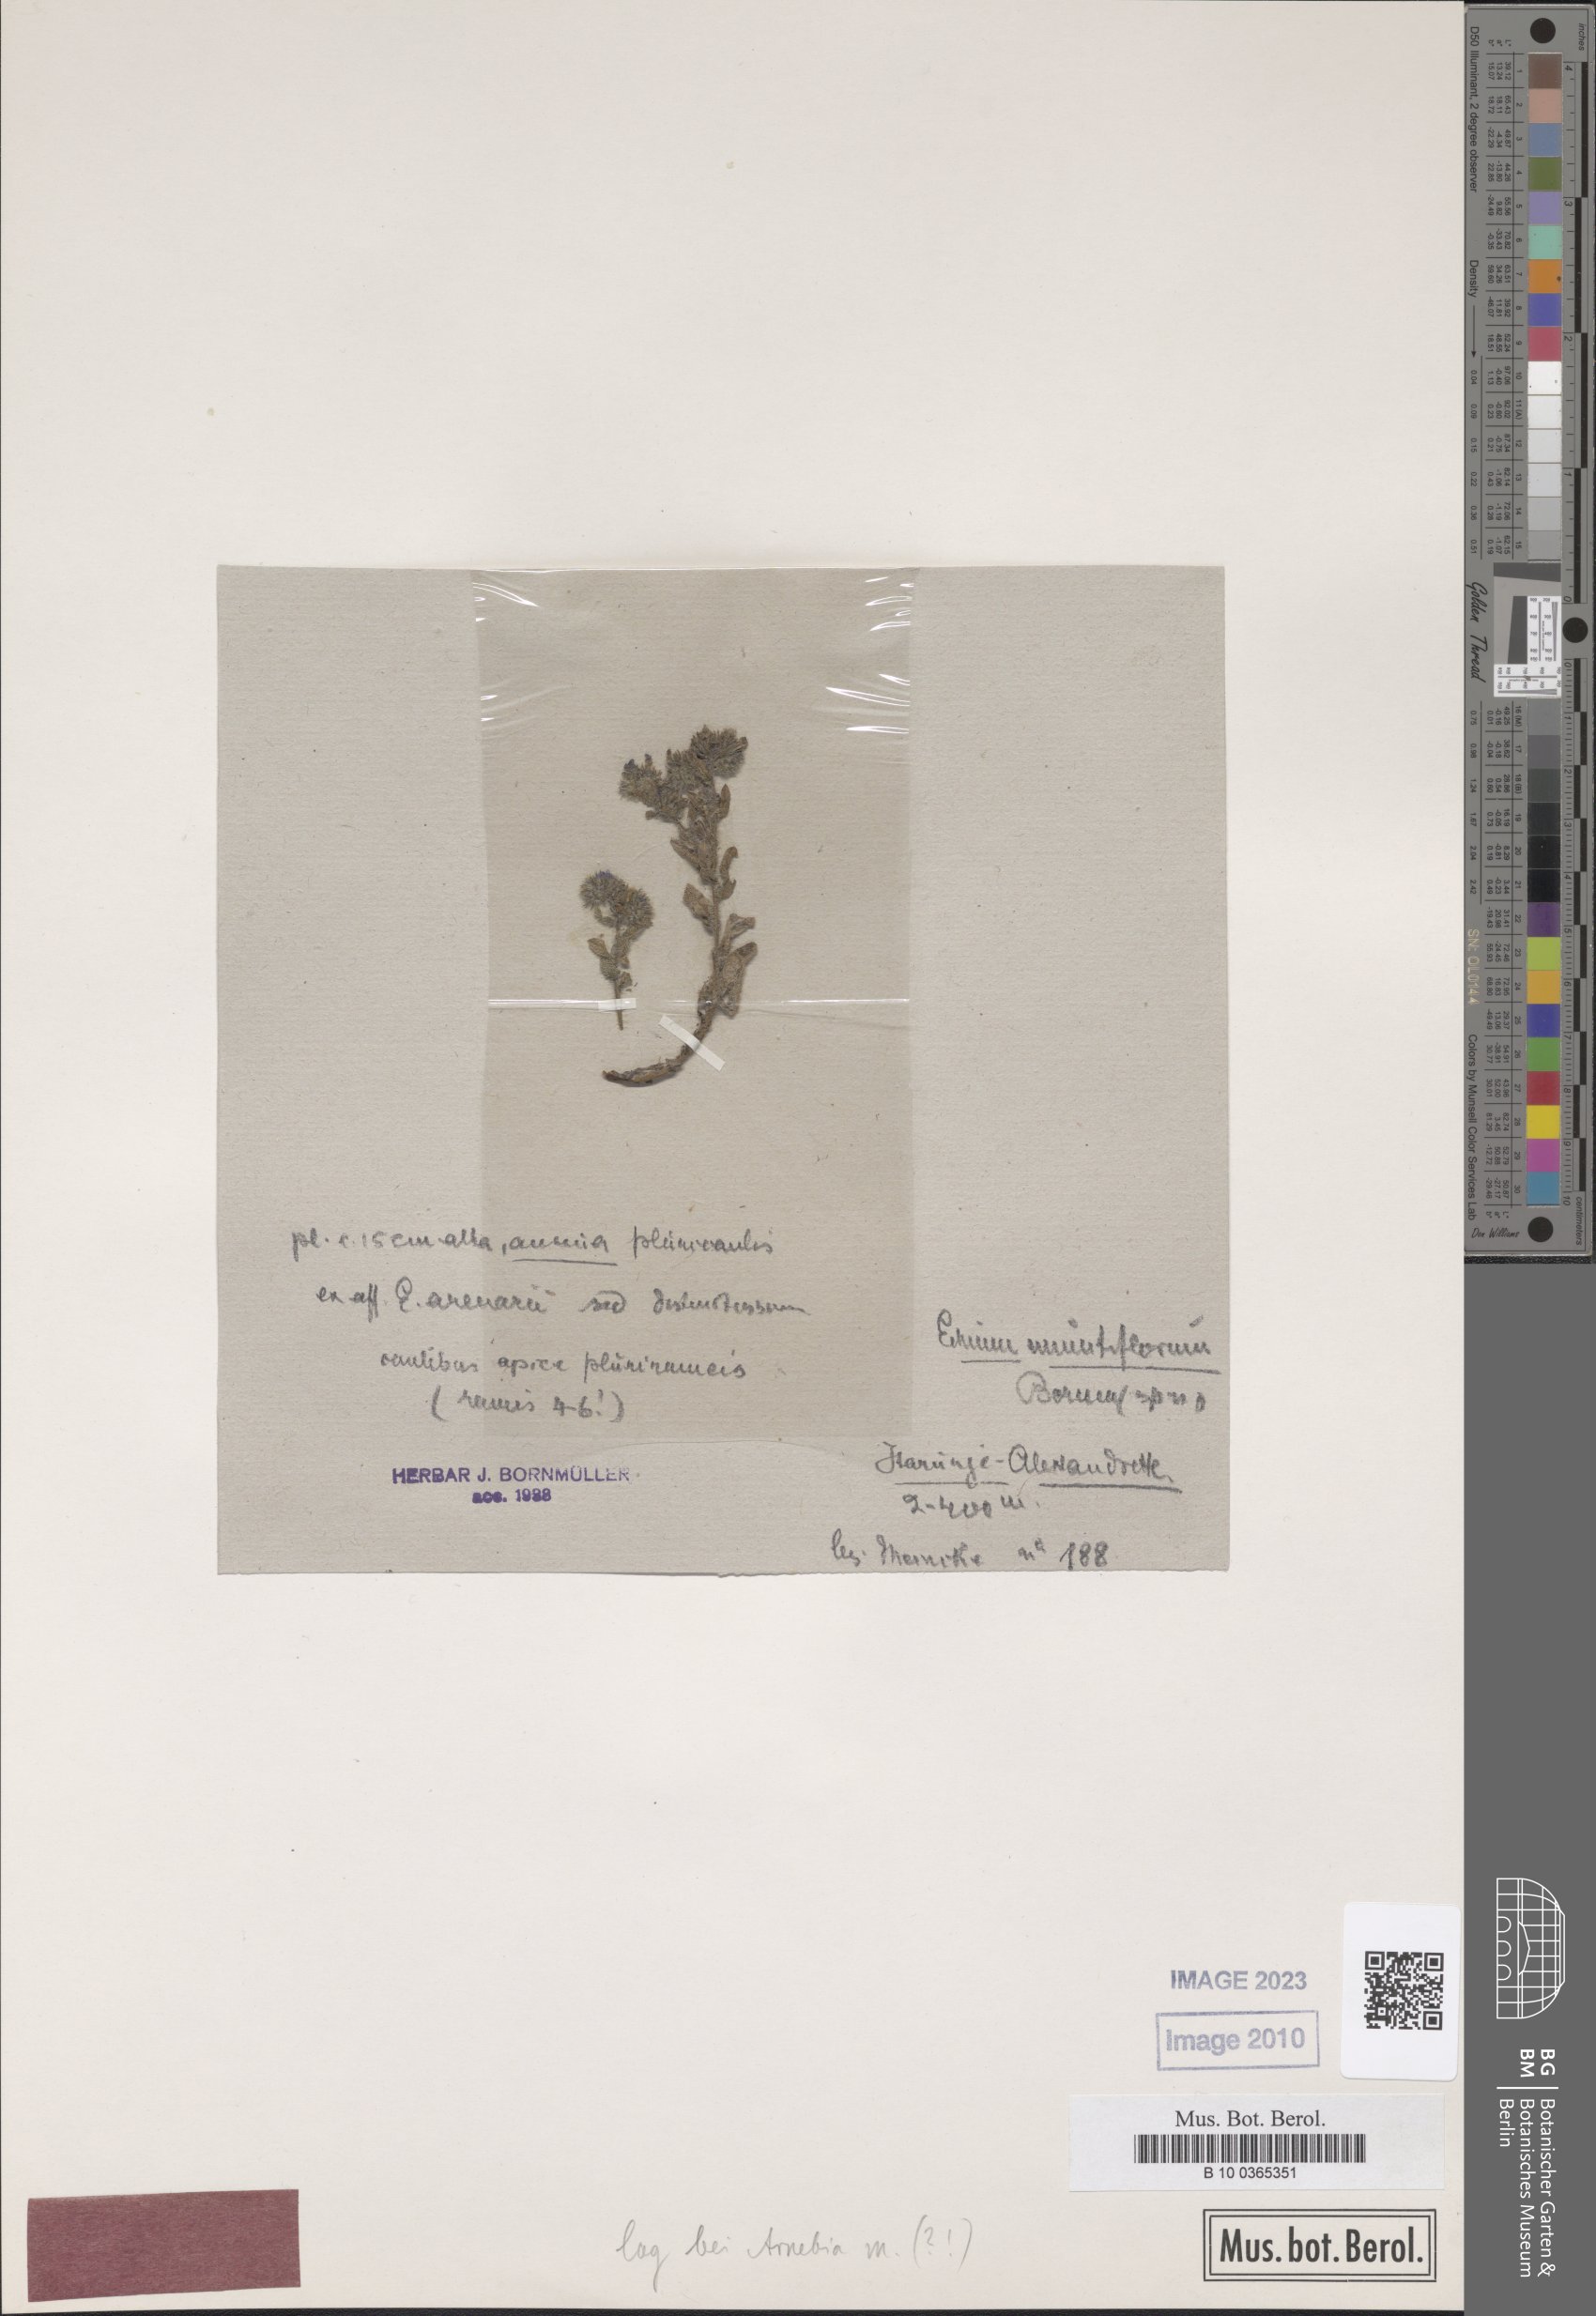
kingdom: Plantae
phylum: Tracheophyta
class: Magnoliopsida
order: Boraginales
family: Boraginaceae
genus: Arnebia
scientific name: Arnebia decumbens
